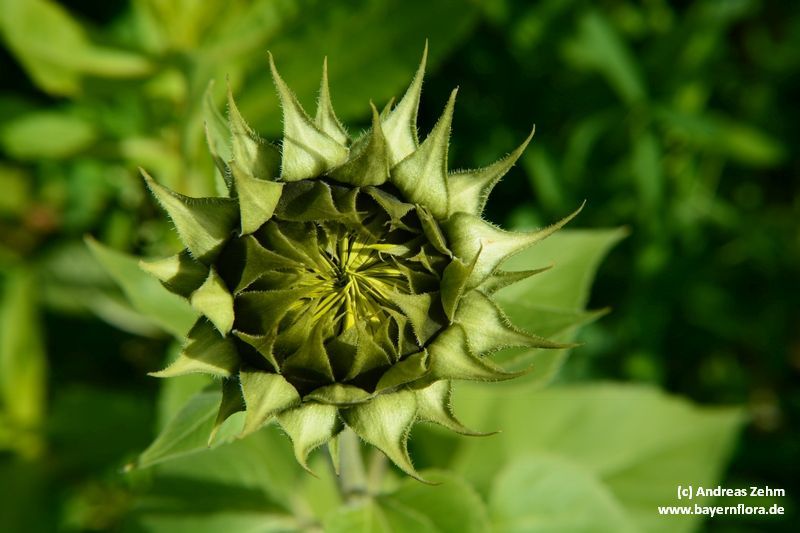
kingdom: Plantae
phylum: Tracheophyta
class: Magnoliopsida
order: Asterales
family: Asteraceae
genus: Helianthus
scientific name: Helianthus annuus
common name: Sunflower
